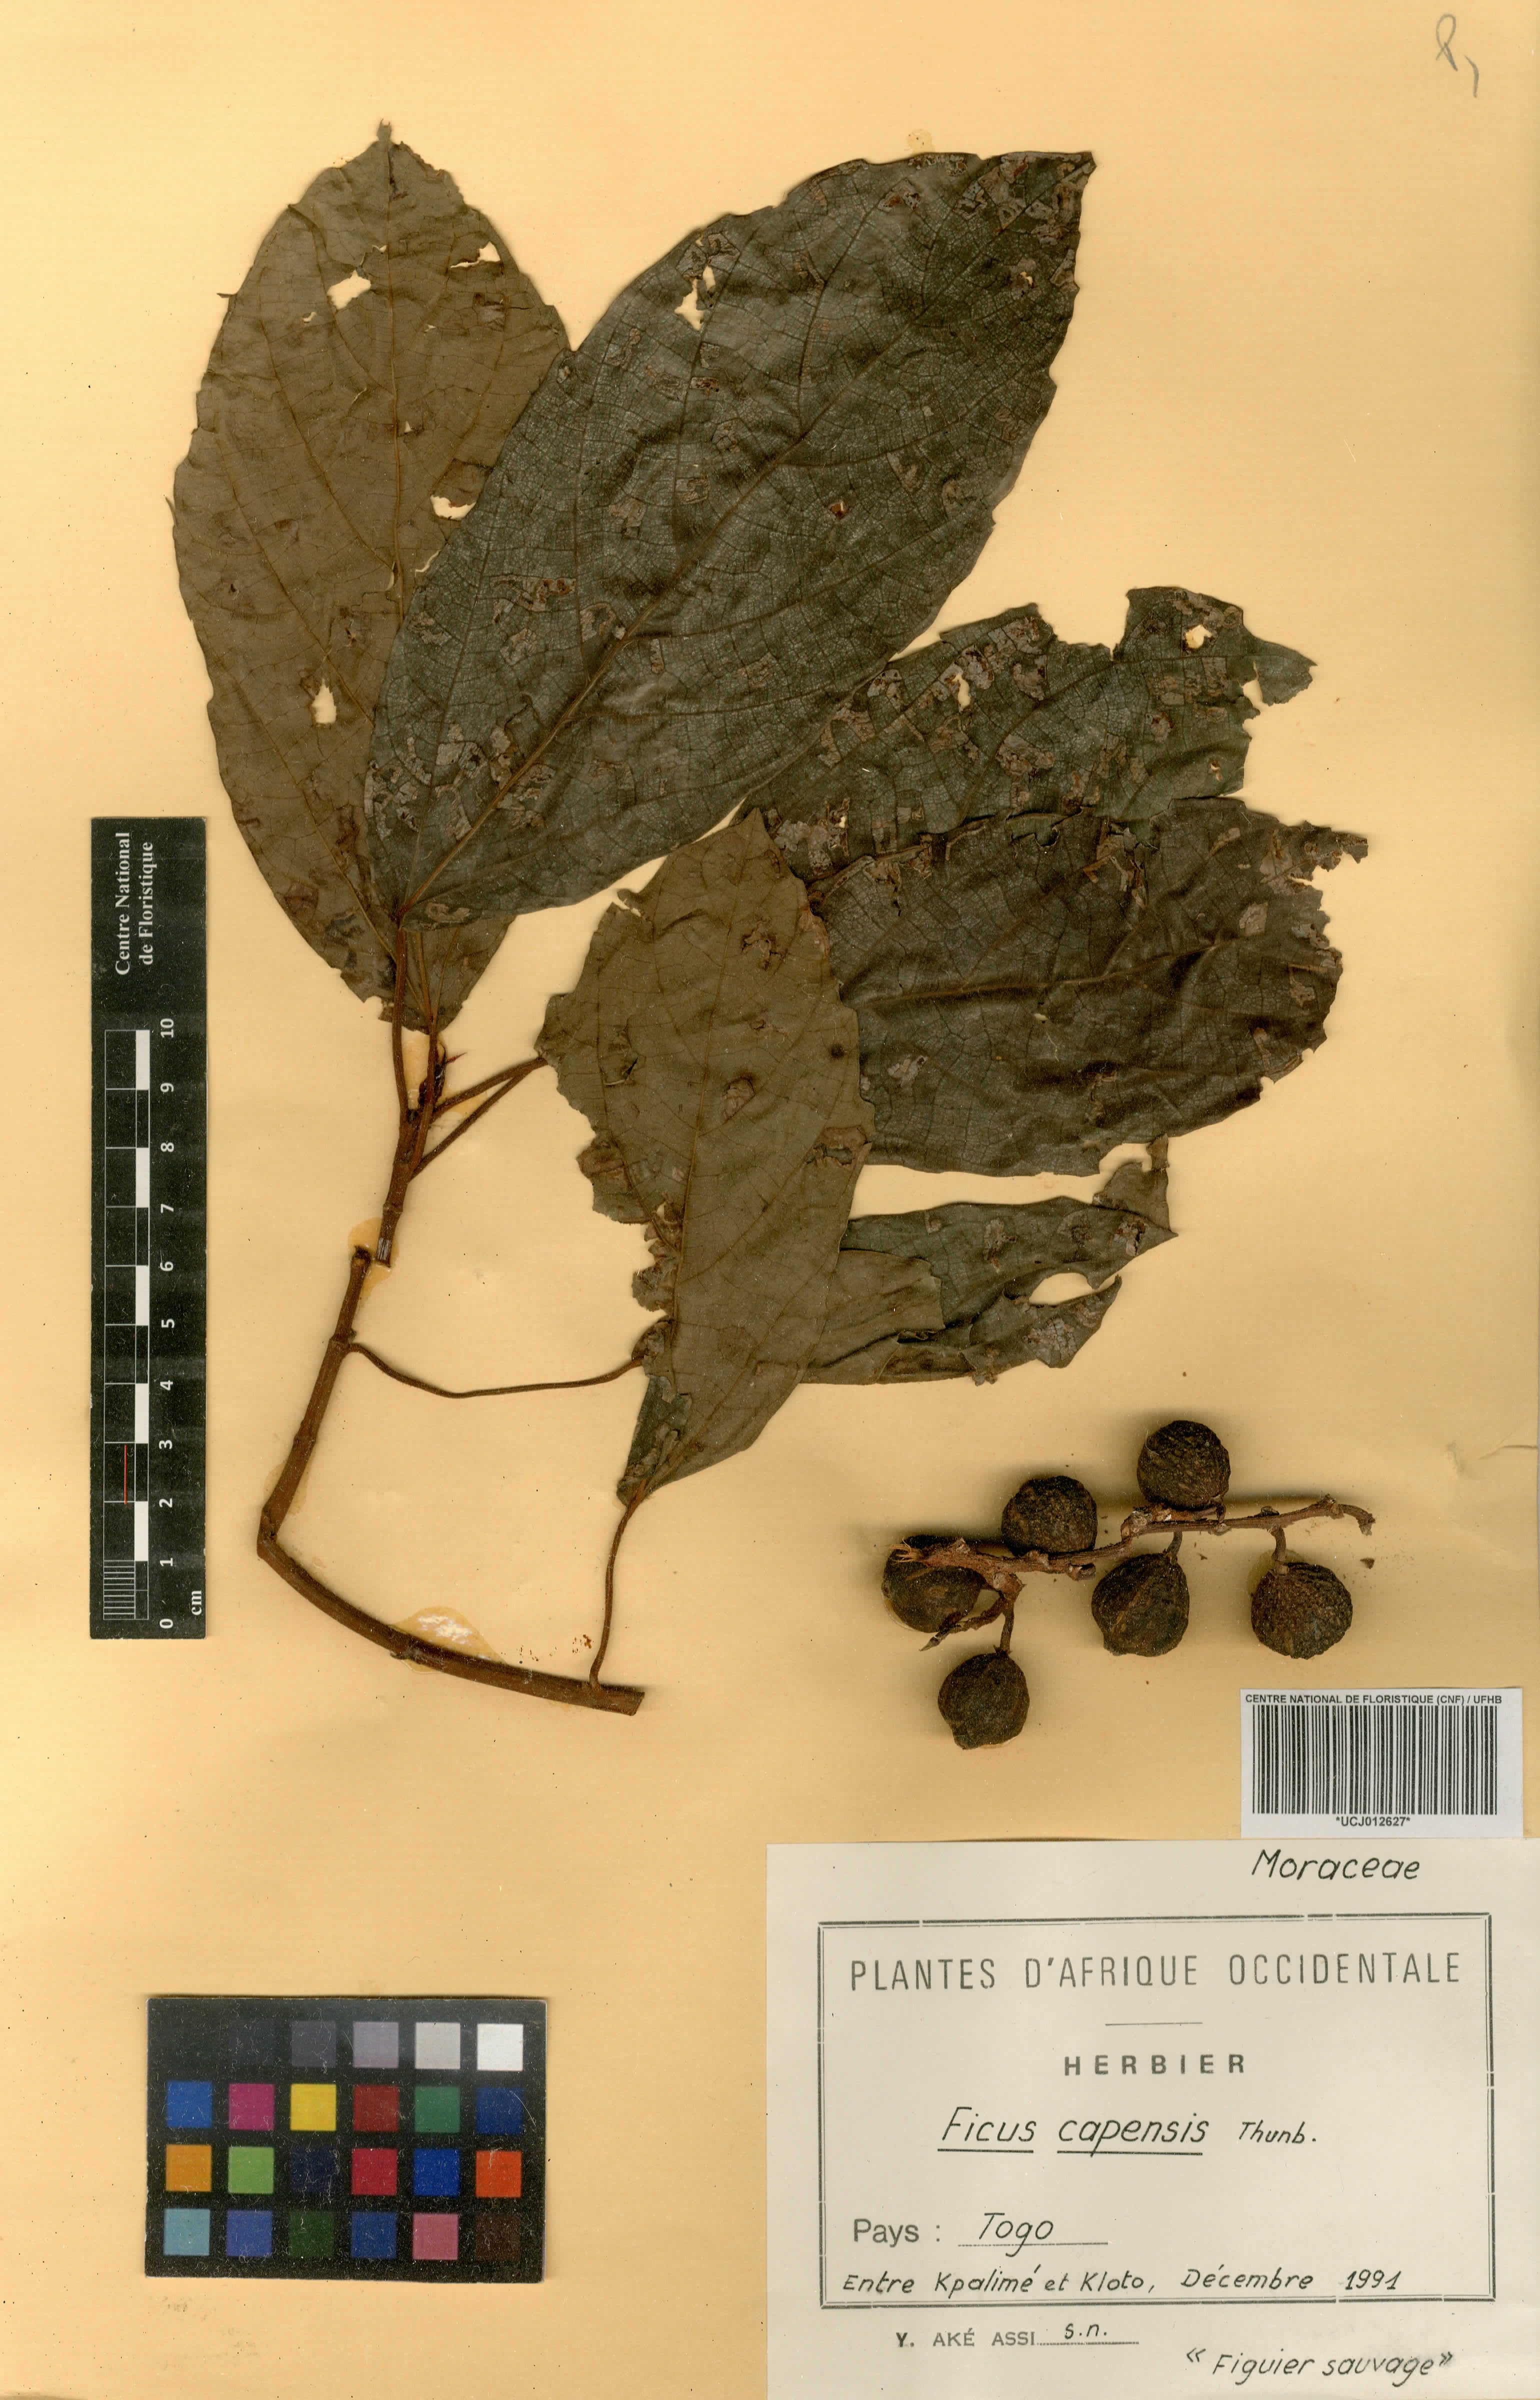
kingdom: Plantae
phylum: Tracheophyta
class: Magnoliopsida
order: Rosales
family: Moraceae
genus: Ficus
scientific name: Ficus sur
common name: Cape fig
